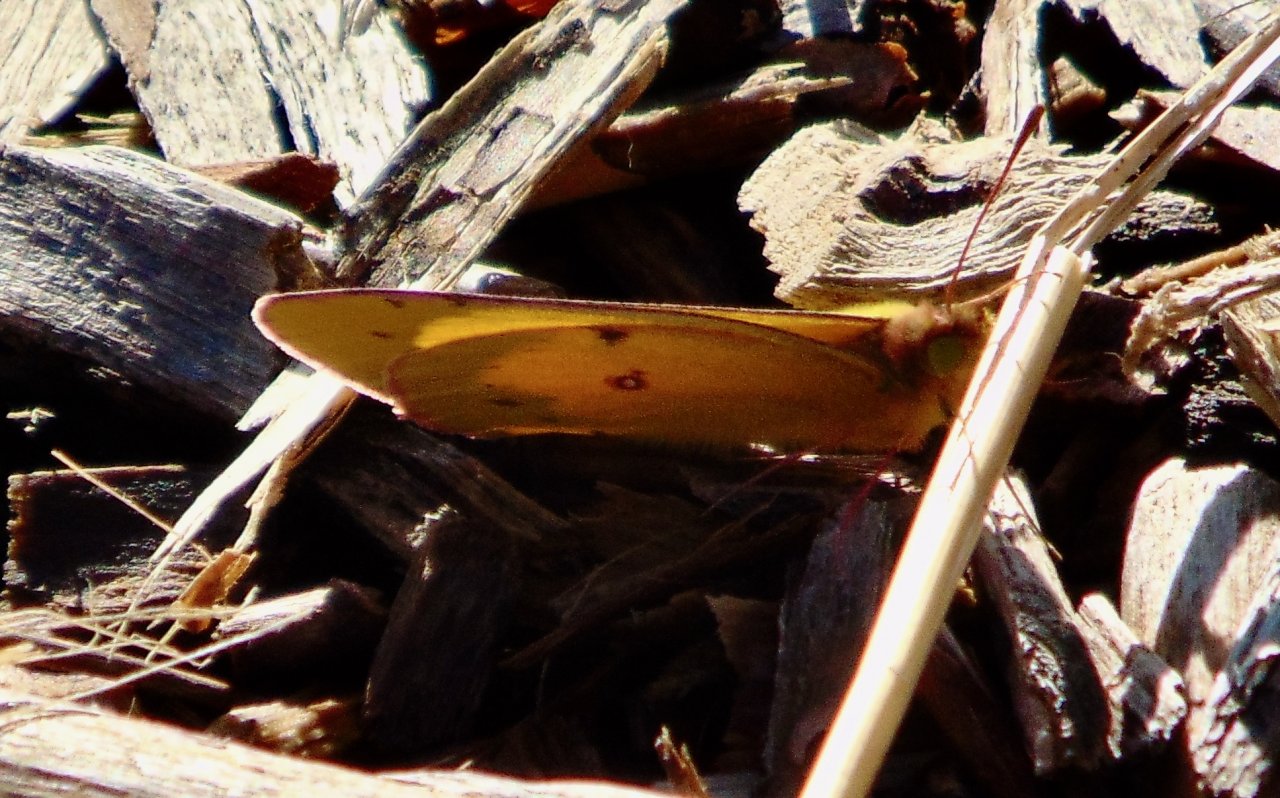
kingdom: Animalia
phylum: Arthropoda
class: Insecta
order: Lepidoptera
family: Pieridae
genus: Colias
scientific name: Colias eurytheme
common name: Orange Sulphur
